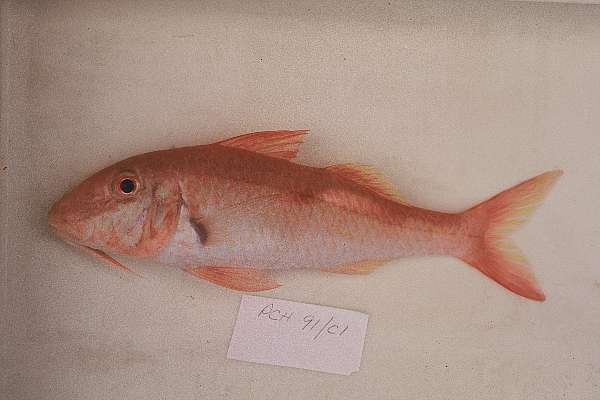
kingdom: Animalia
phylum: Chordata
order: Perciformes
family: Mullidae
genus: Parupeneus
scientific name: Parupeneus heptacanthus
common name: Cinnabar goatfish
